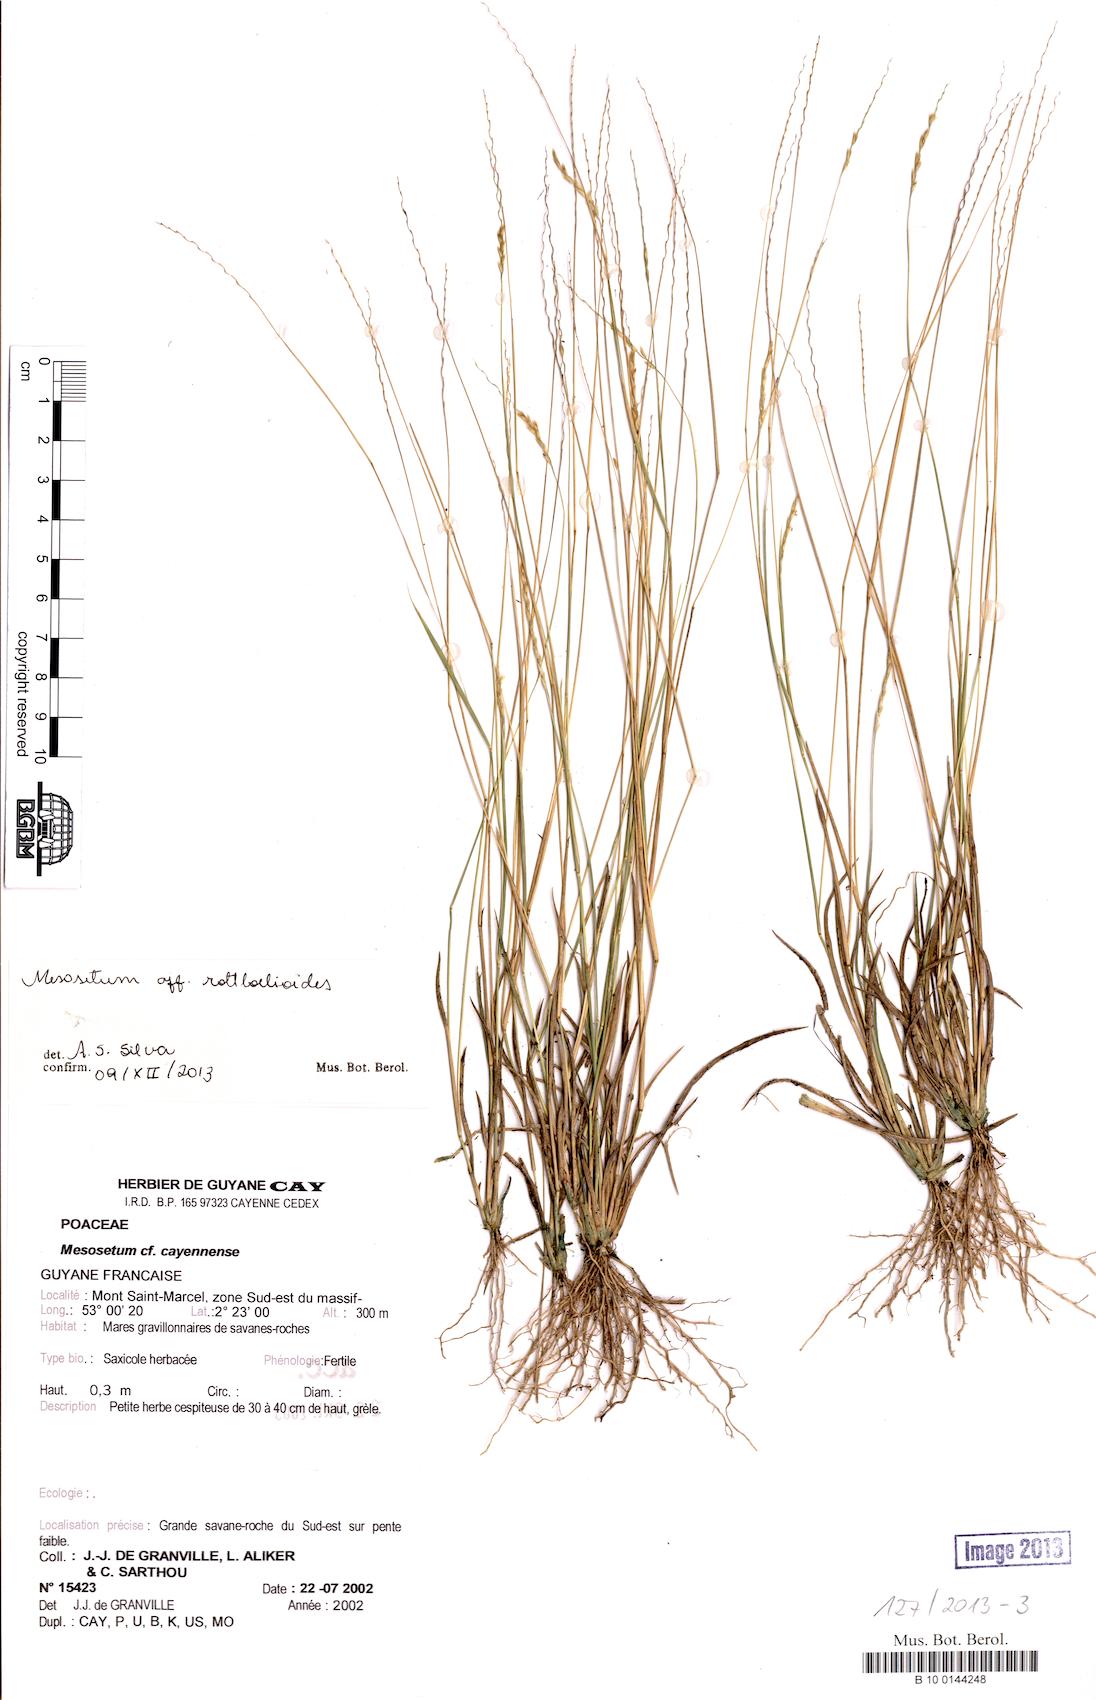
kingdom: Plantae
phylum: Tracheophyta
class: Liliopsida
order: Poales
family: Poaceae
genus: Mesosetum
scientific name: Mesosetum rottboellioides
